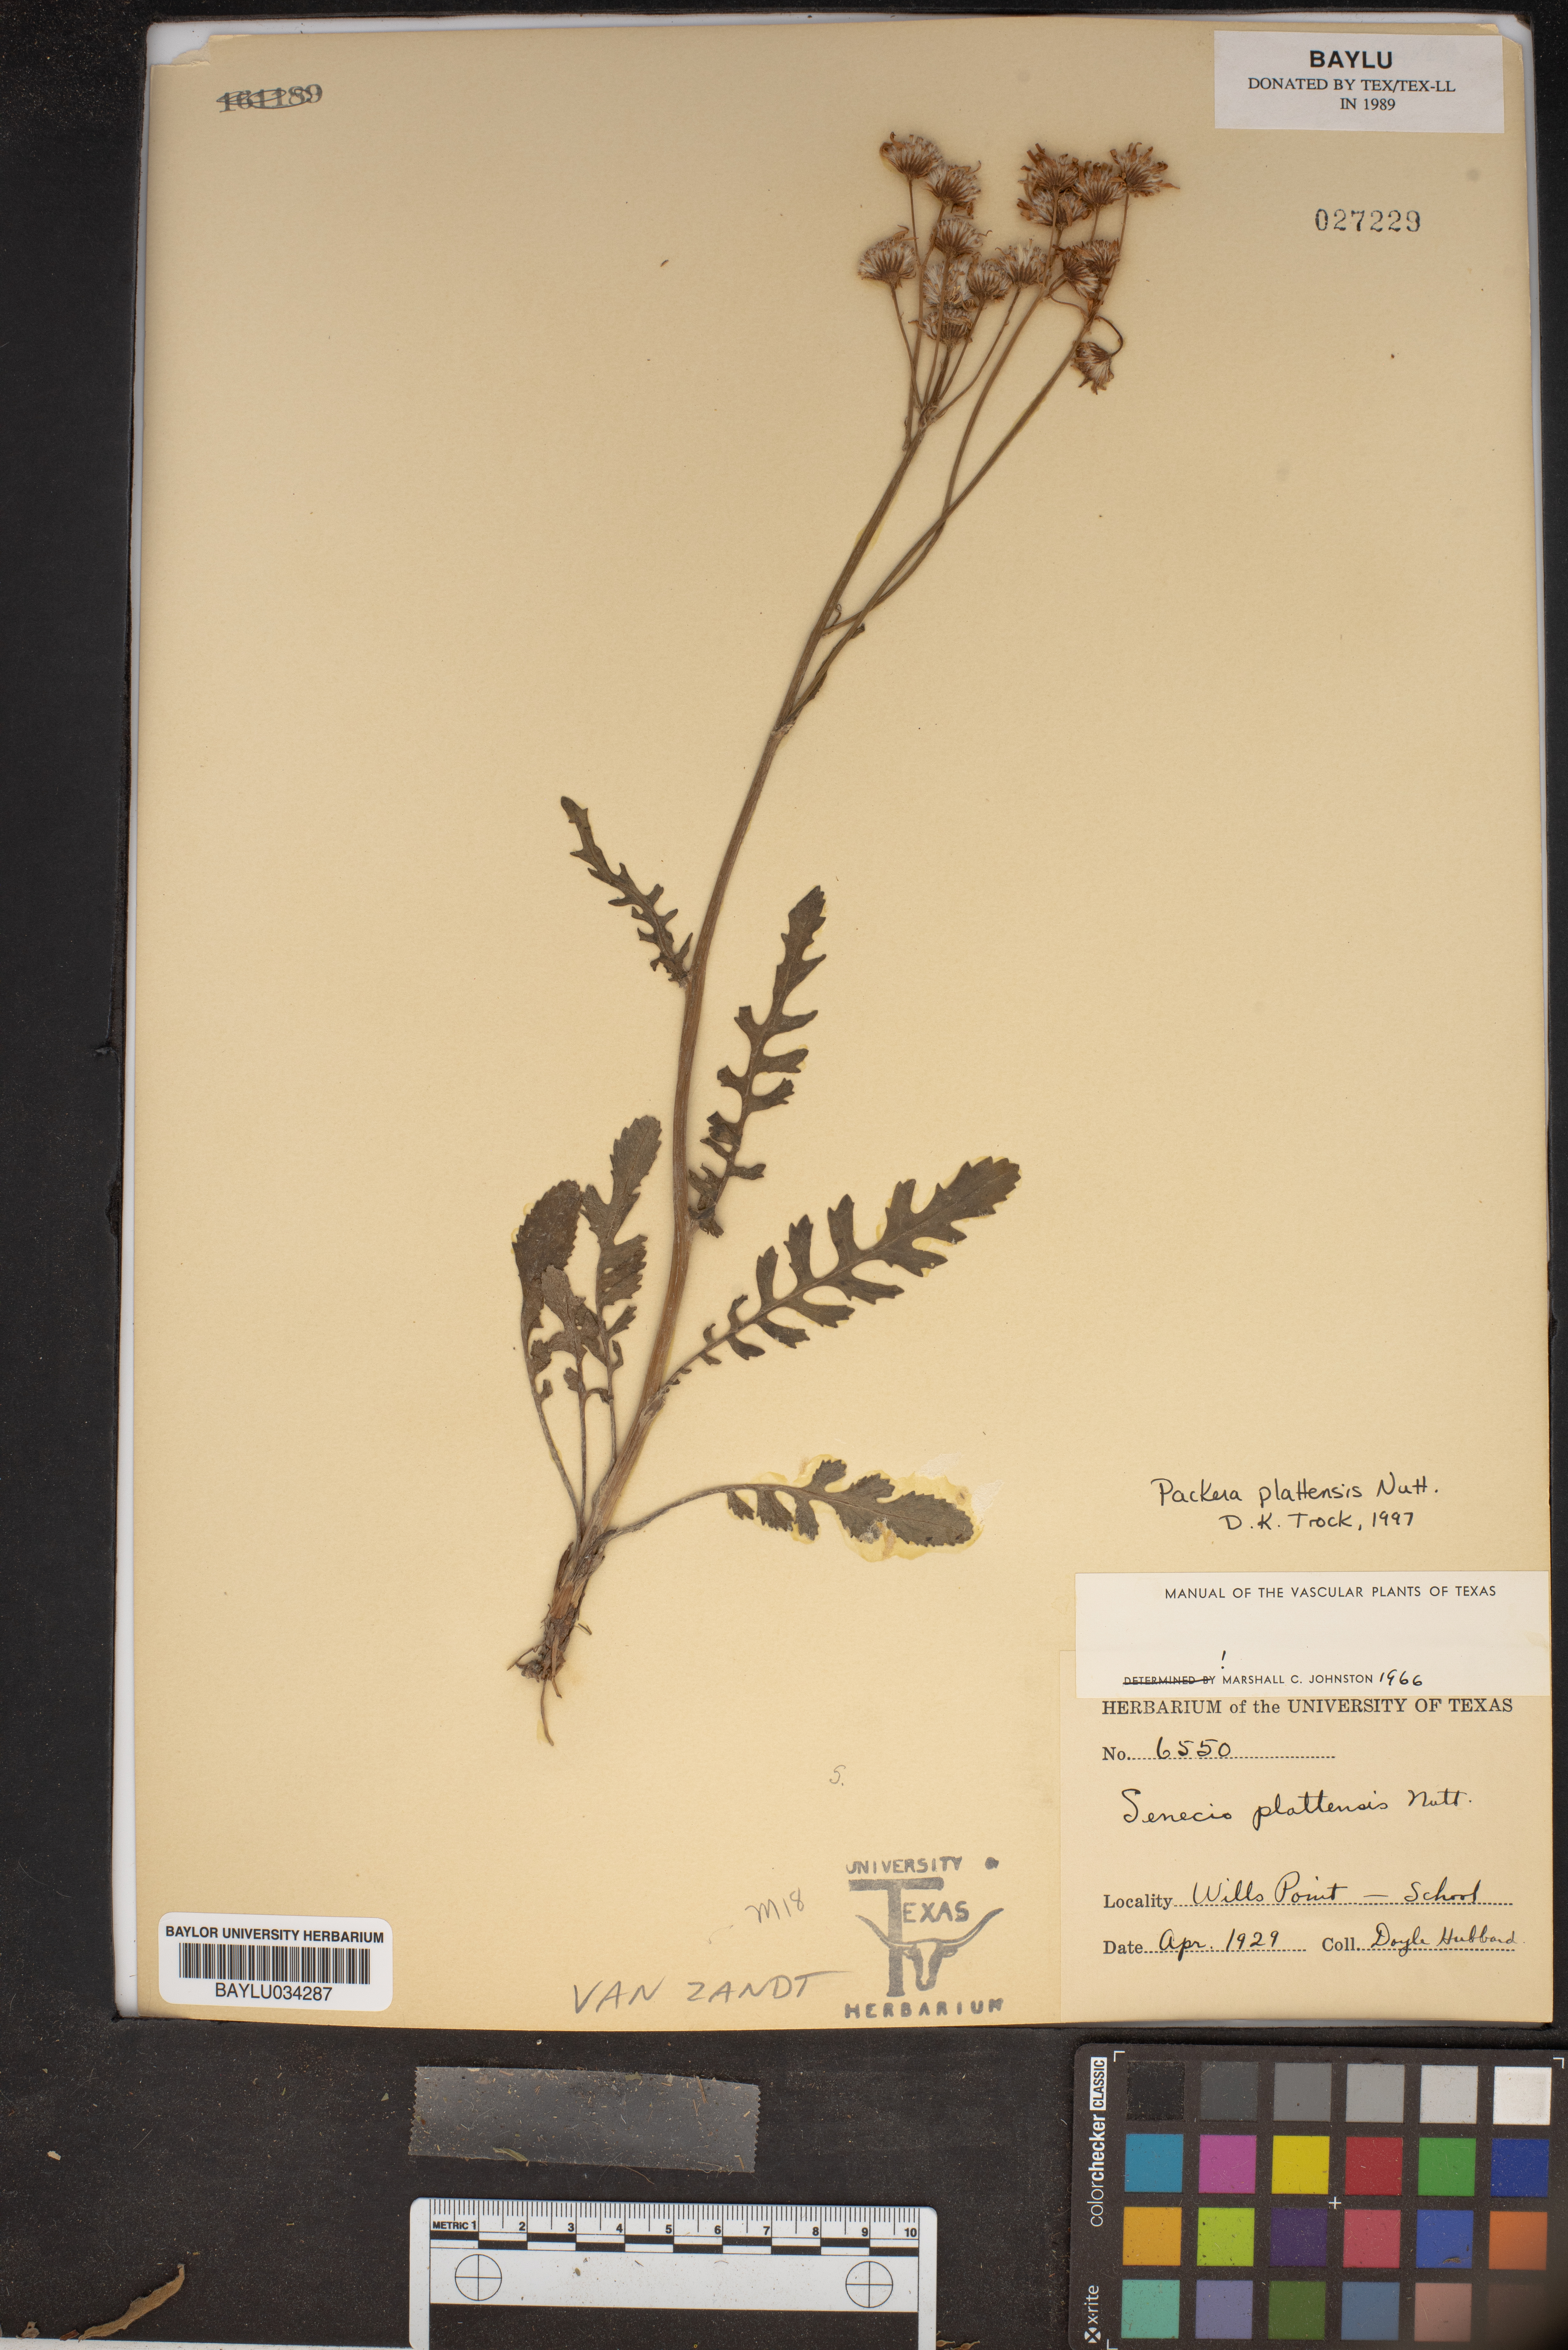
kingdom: Plantae
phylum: Tracheophyta
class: Magnoliopsida
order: Asterales
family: Asteraceae
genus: Packera
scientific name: Packera plattensis
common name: Prairie groundsel
